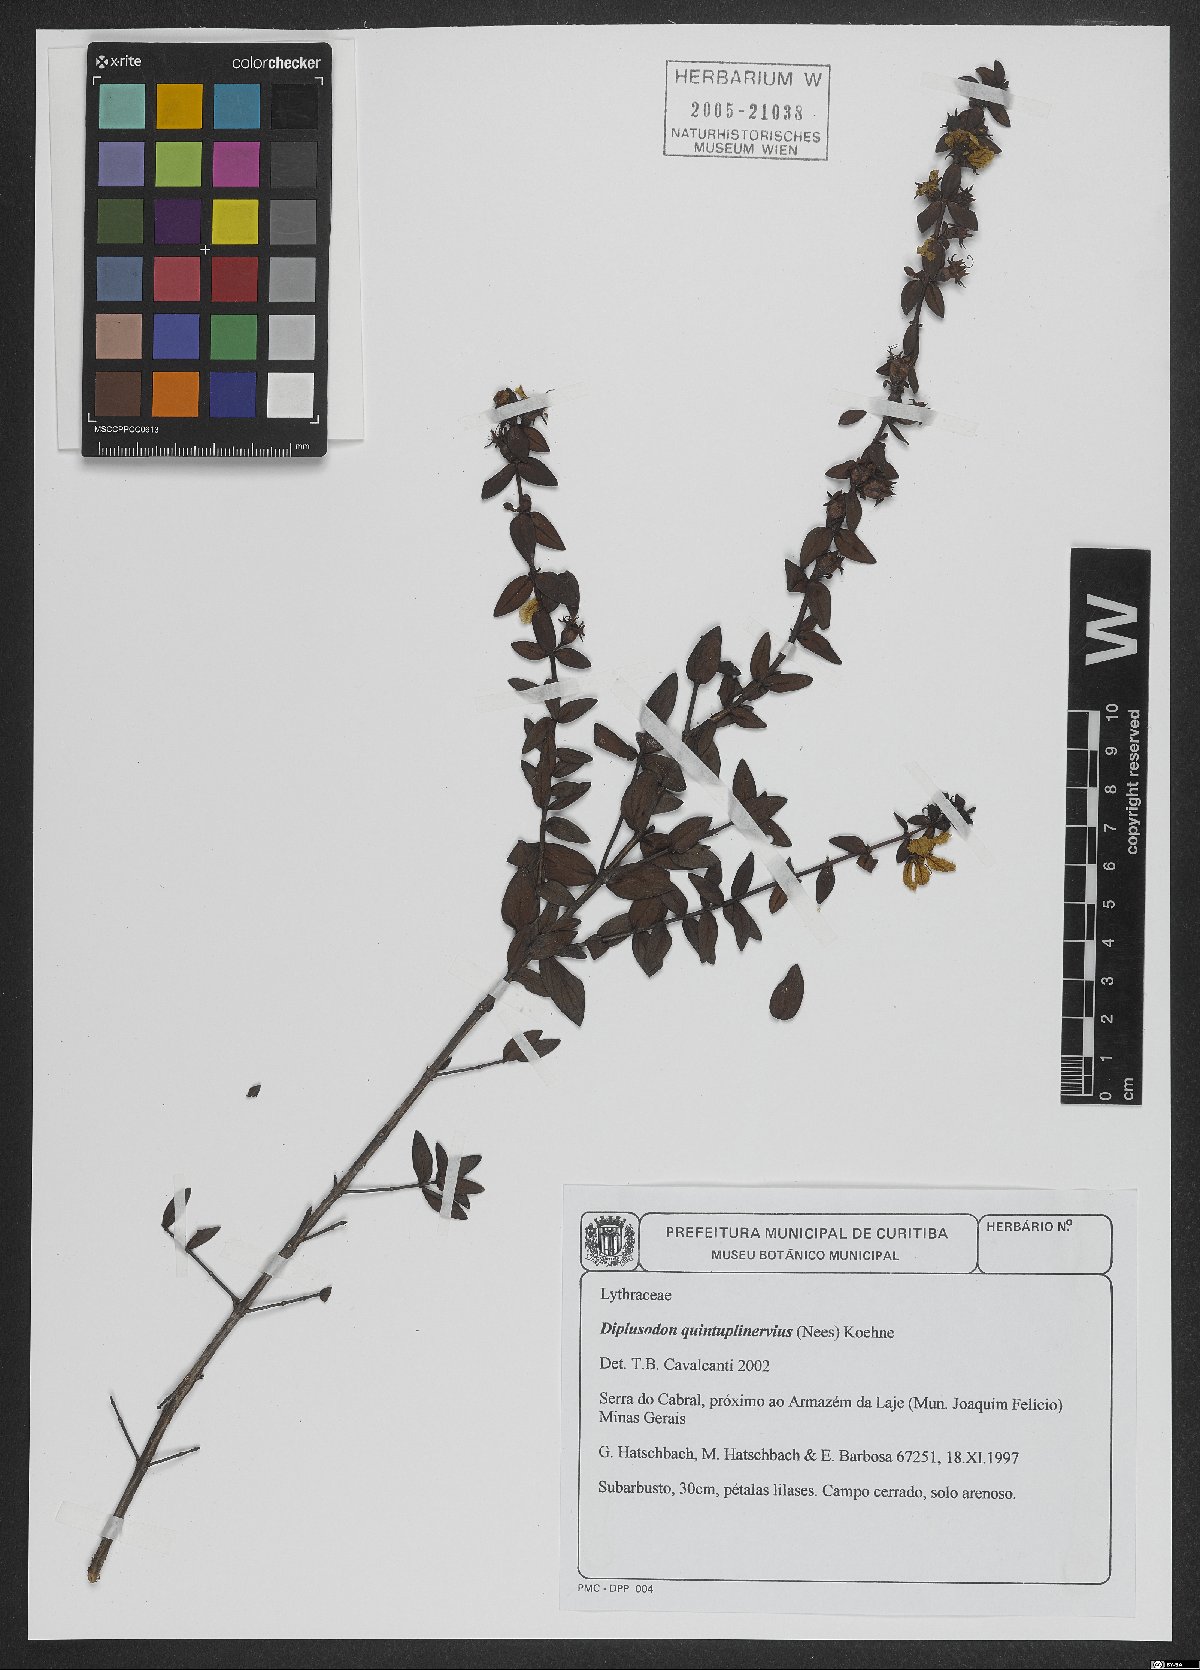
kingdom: Plantae
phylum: Tracheophyta
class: Magnoliopsida
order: Myrtales
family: Lythraceae
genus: Diplusodon
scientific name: Diplusodon quintuplinervius
